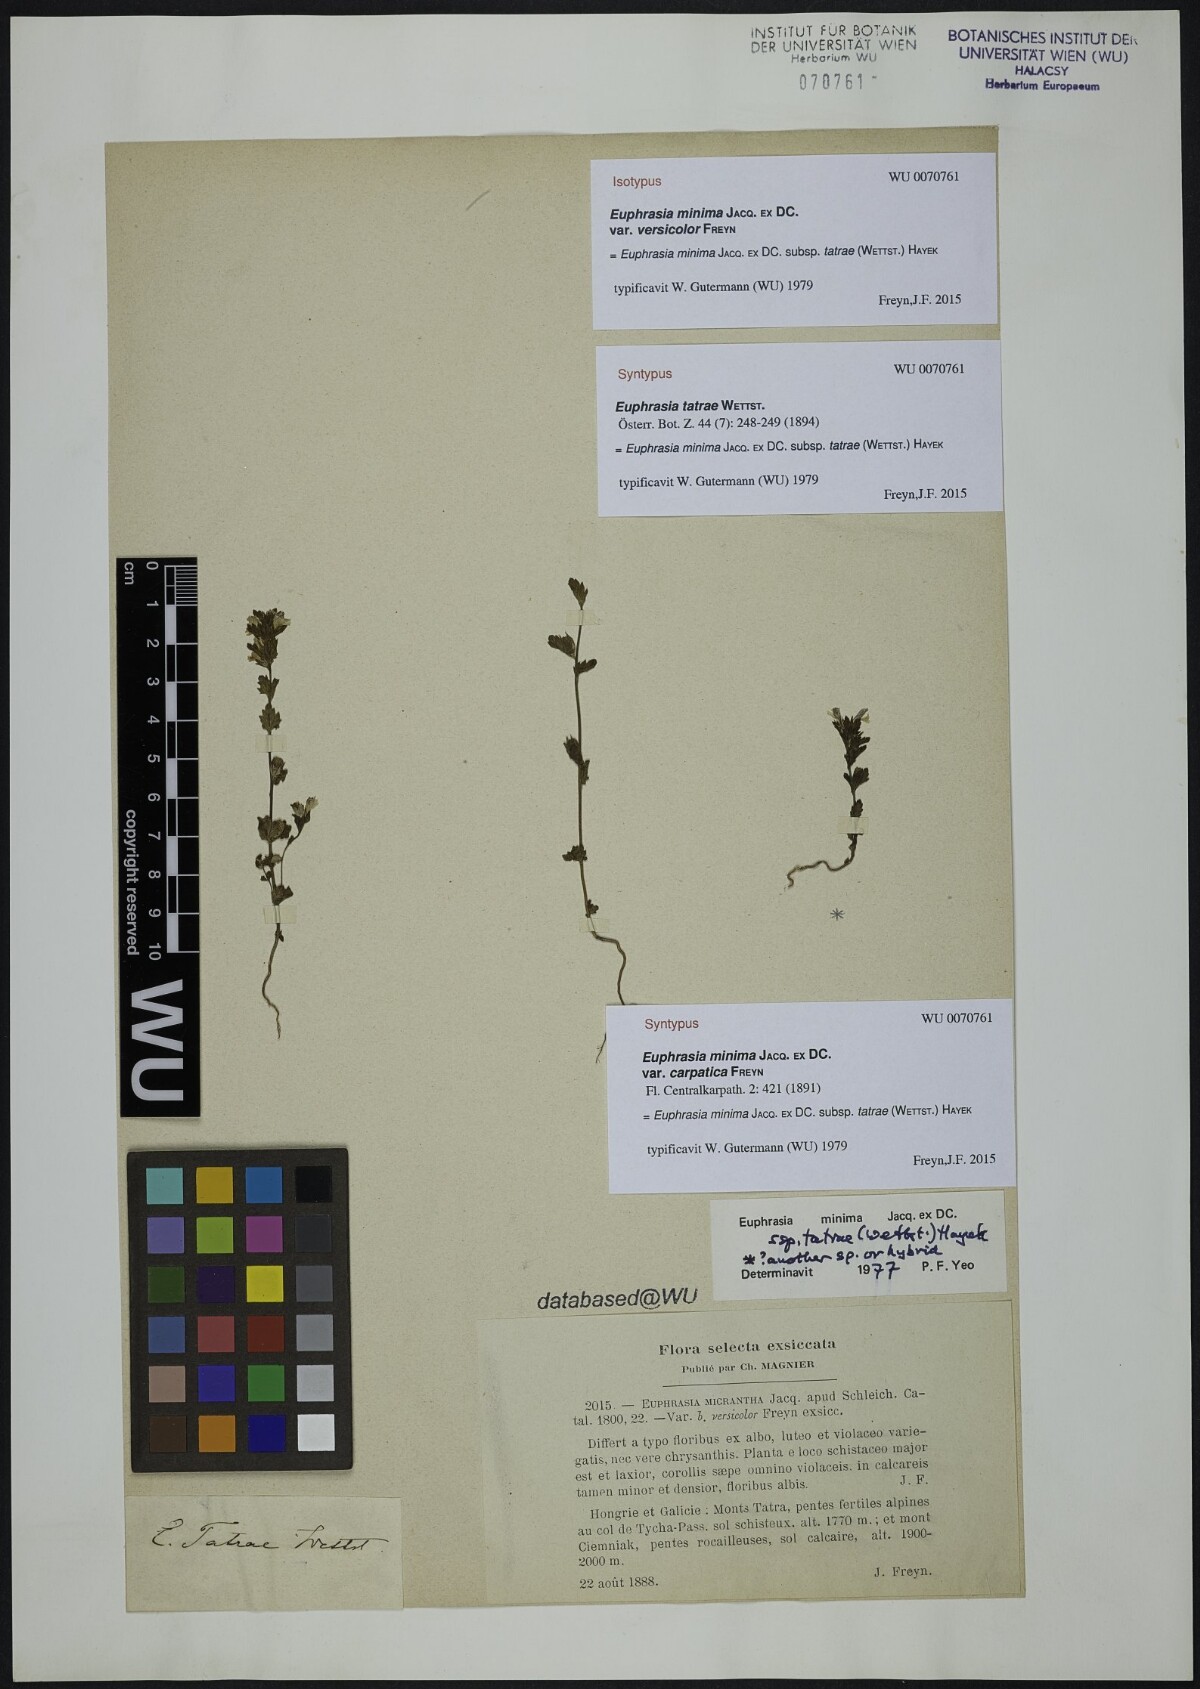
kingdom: Plantae
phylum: Tracheophyta
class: Magnoliopsida
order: Lamiales
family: Orobanchaceae
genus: Euphrasia
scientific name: Euphrasia minima
